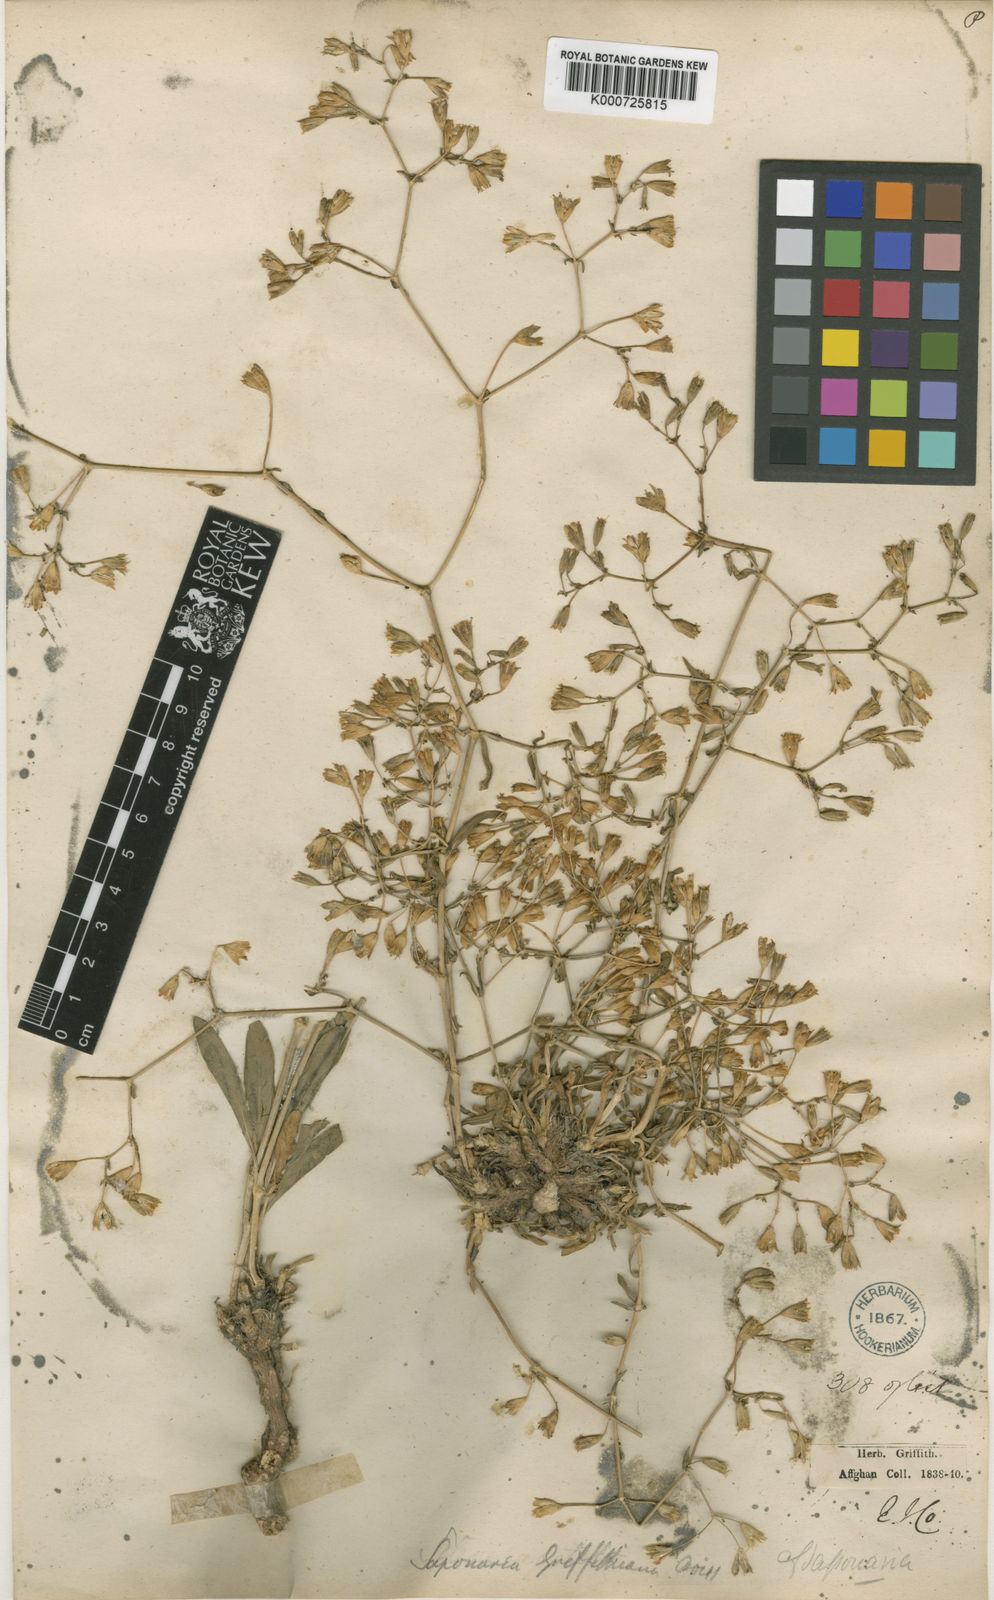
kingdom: Plantae
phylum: Tracheophyta
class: Magnoliopsida
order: Caryophyllales
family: Caryophyllaceae
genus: Saponaria
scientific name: Saponaria griffithiana
